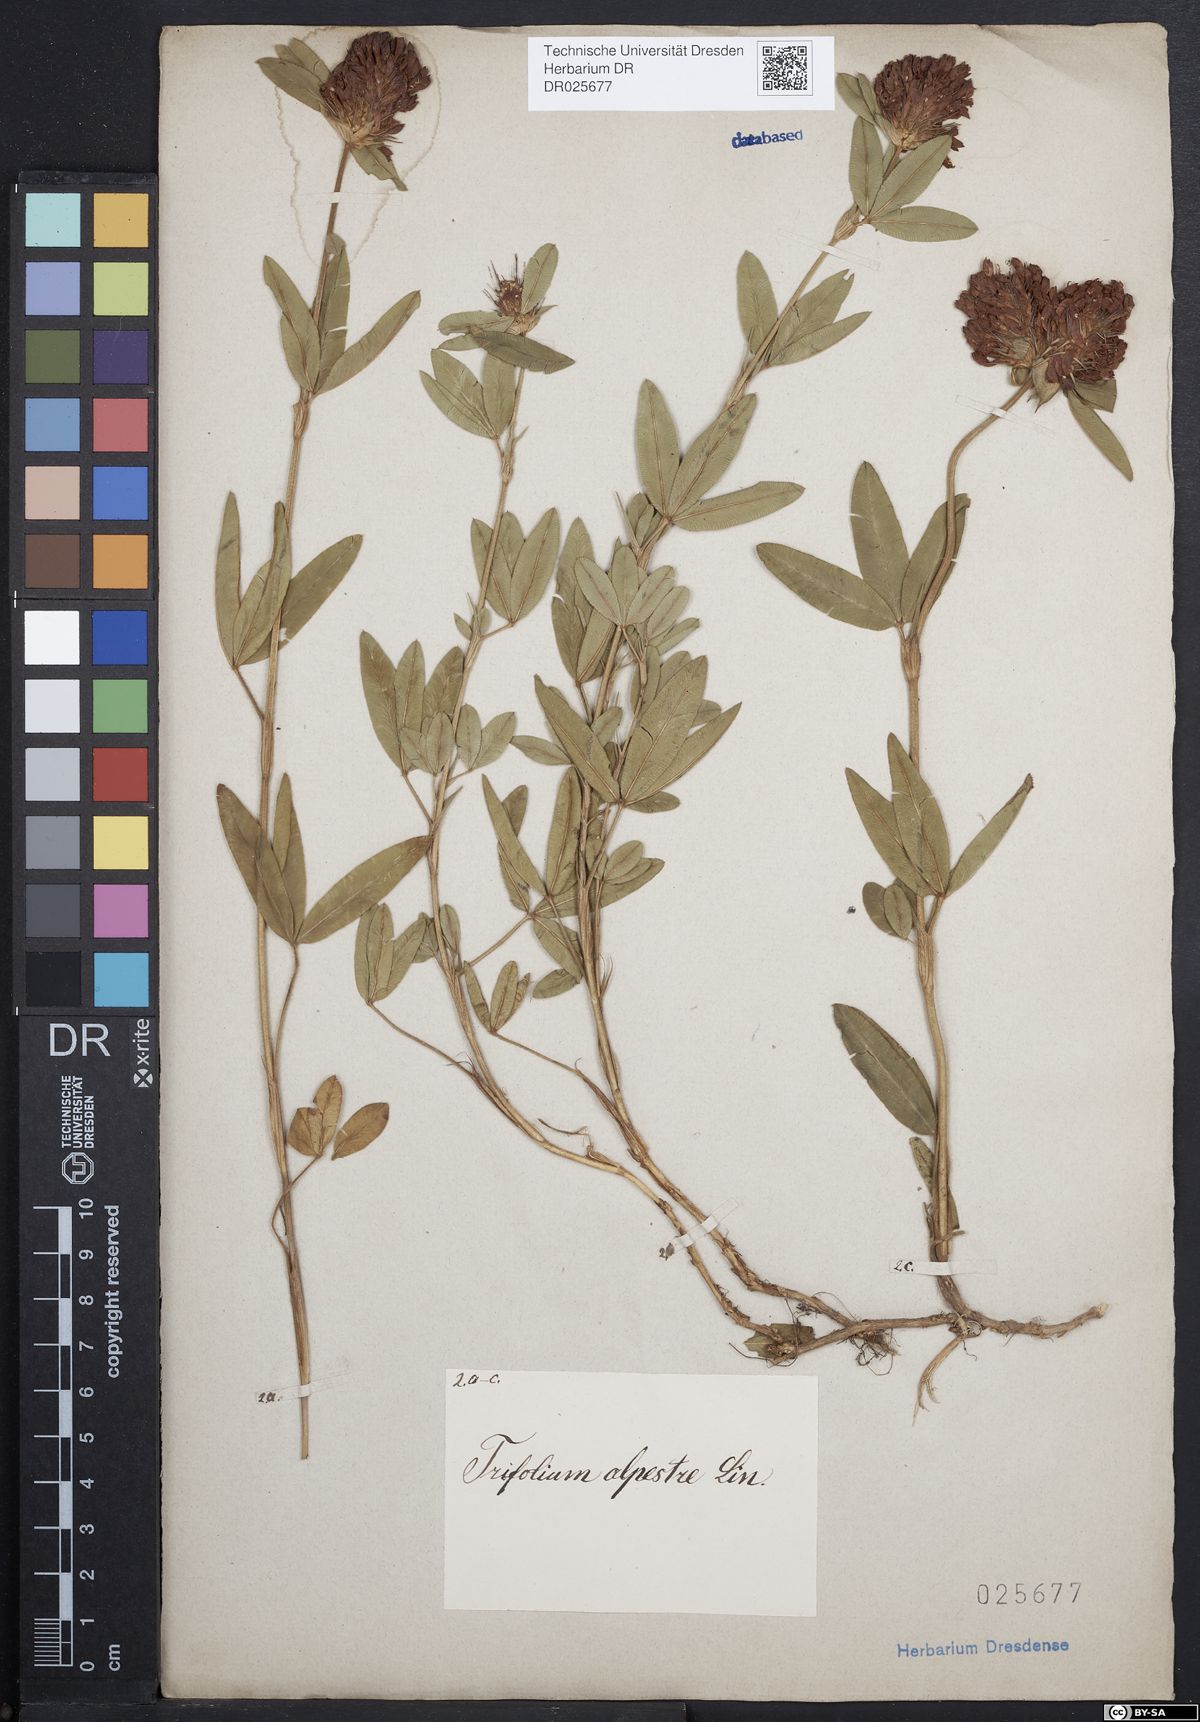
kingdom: Plantae
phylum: Tracheophyta
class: Magnoliopsida
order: Fabales
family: Fabaceae
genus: Trifolium
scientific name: Trifolium alpestre
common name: Owl-head clover
